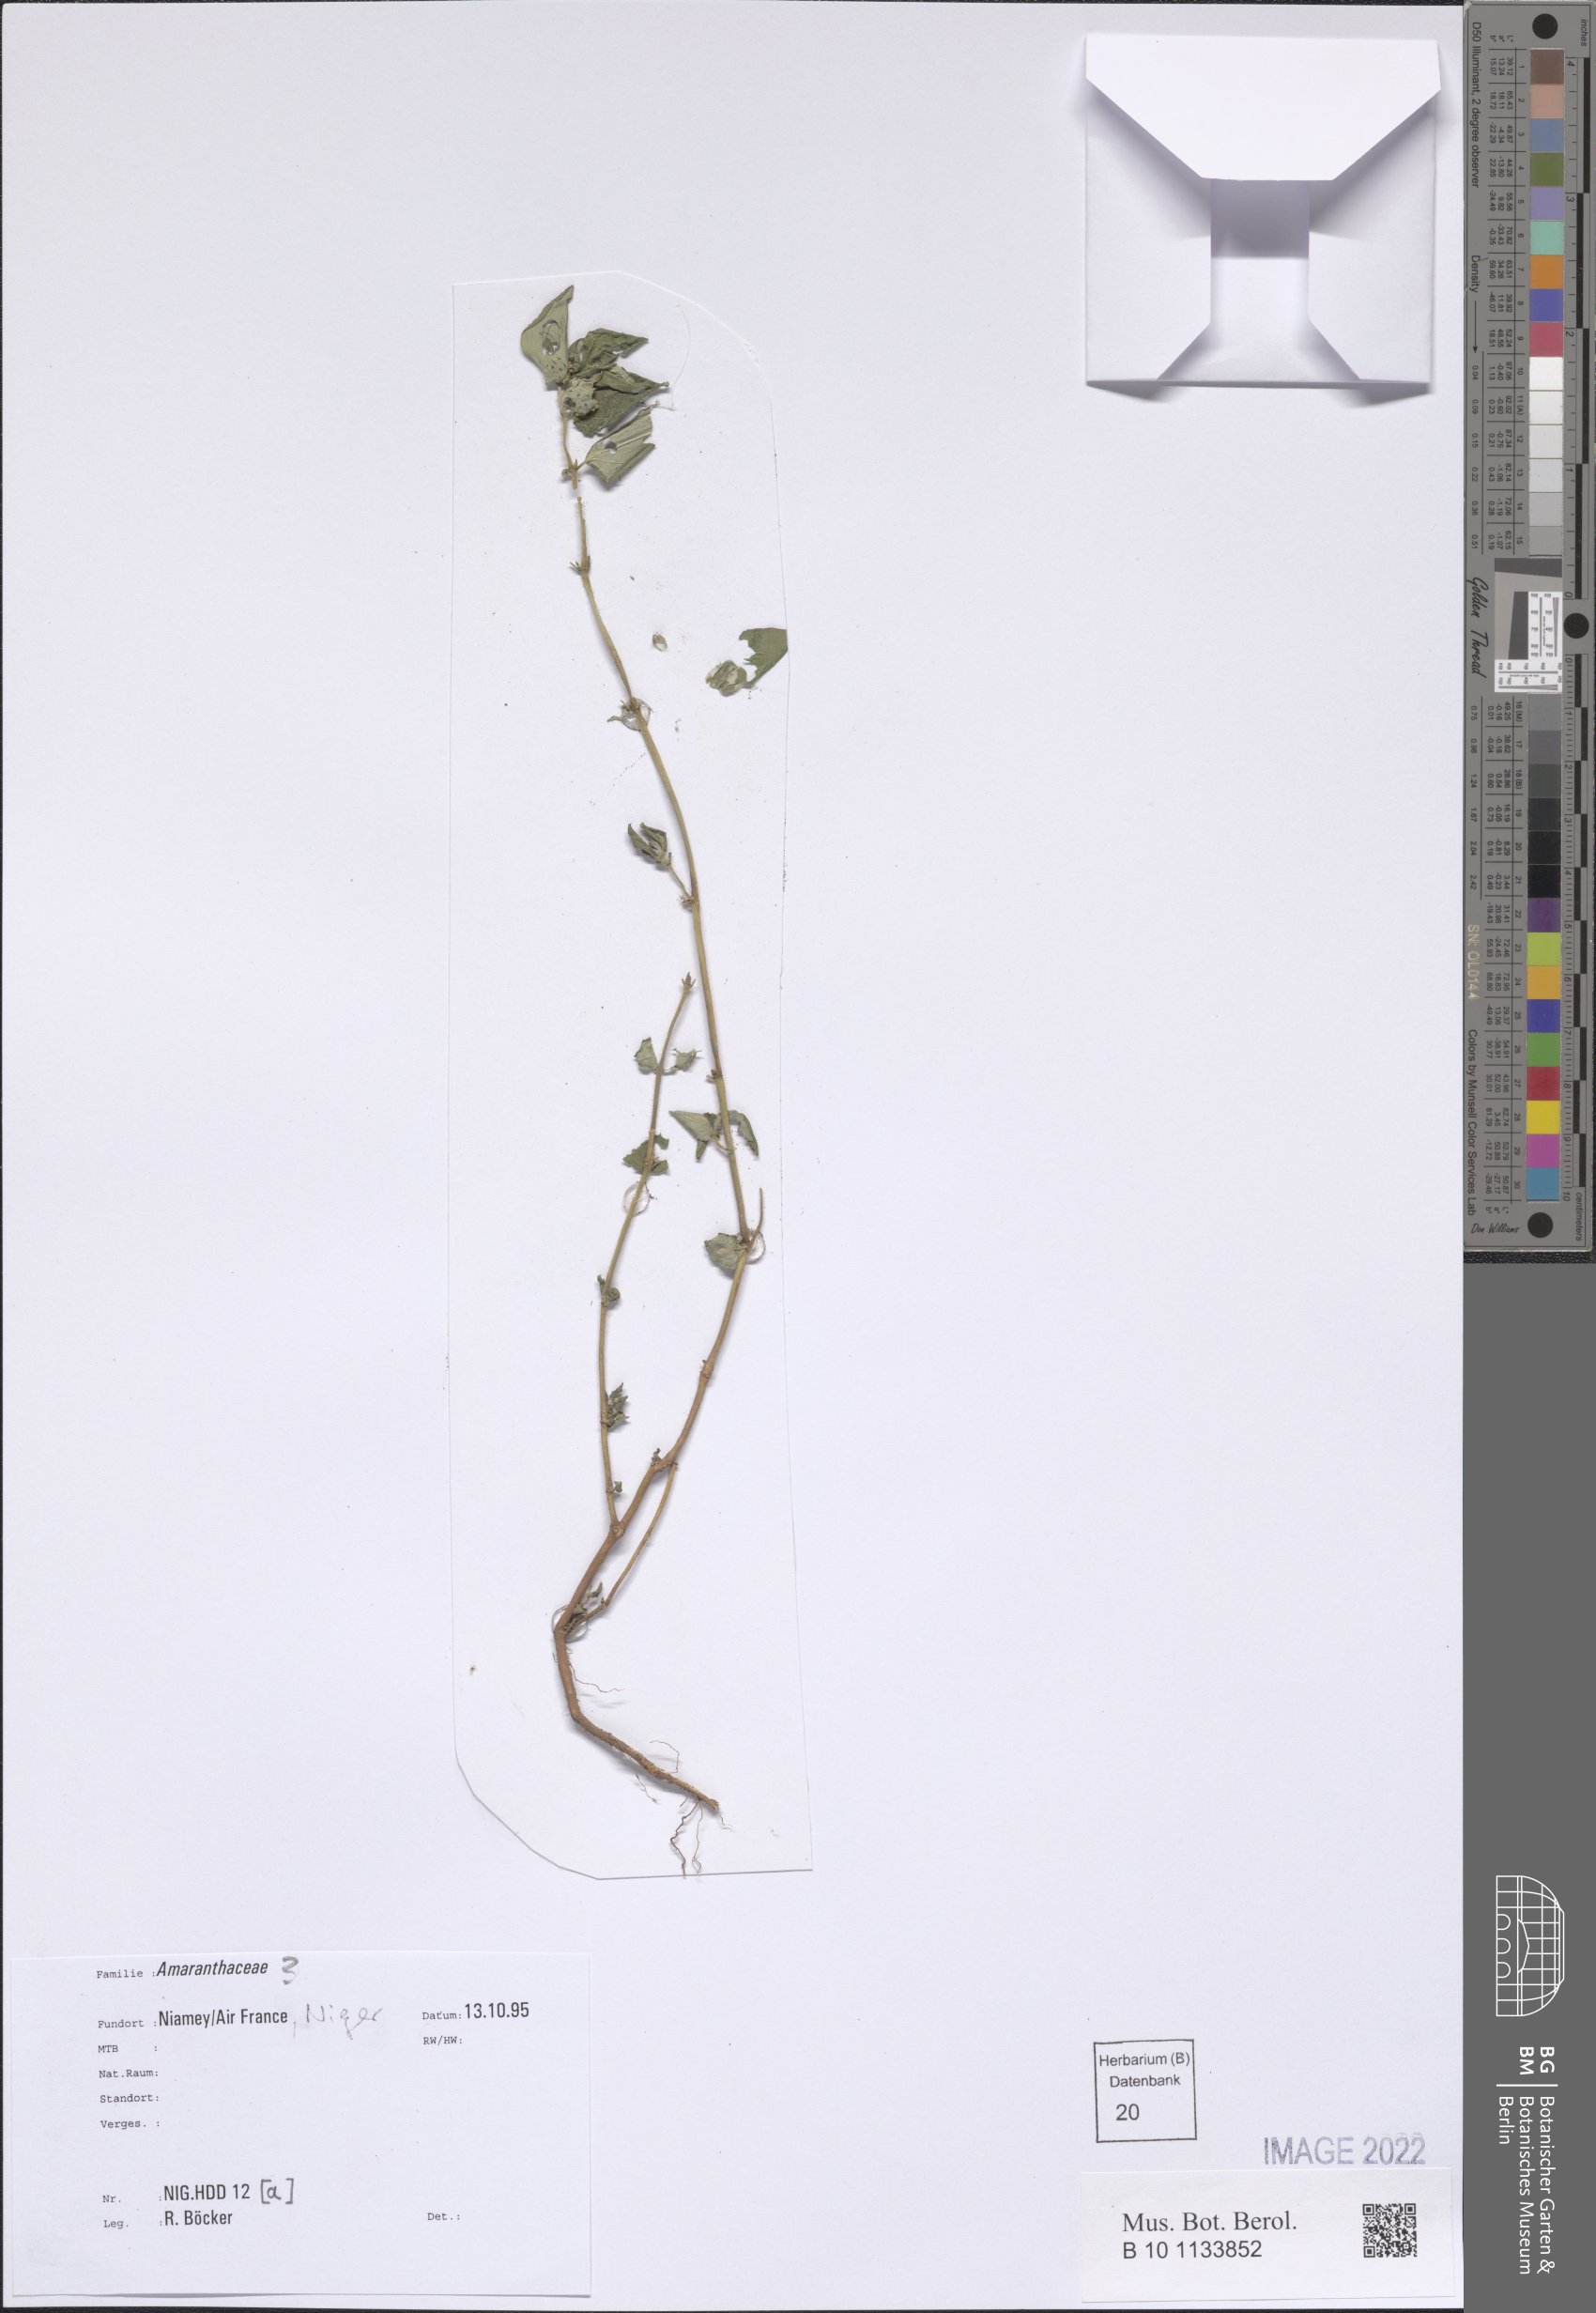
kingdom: Plantae
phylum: Tracheophyta
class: Magnoliopsida
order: Caryophyllales
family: Amaranthaceae
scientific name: Amaranthaceae
